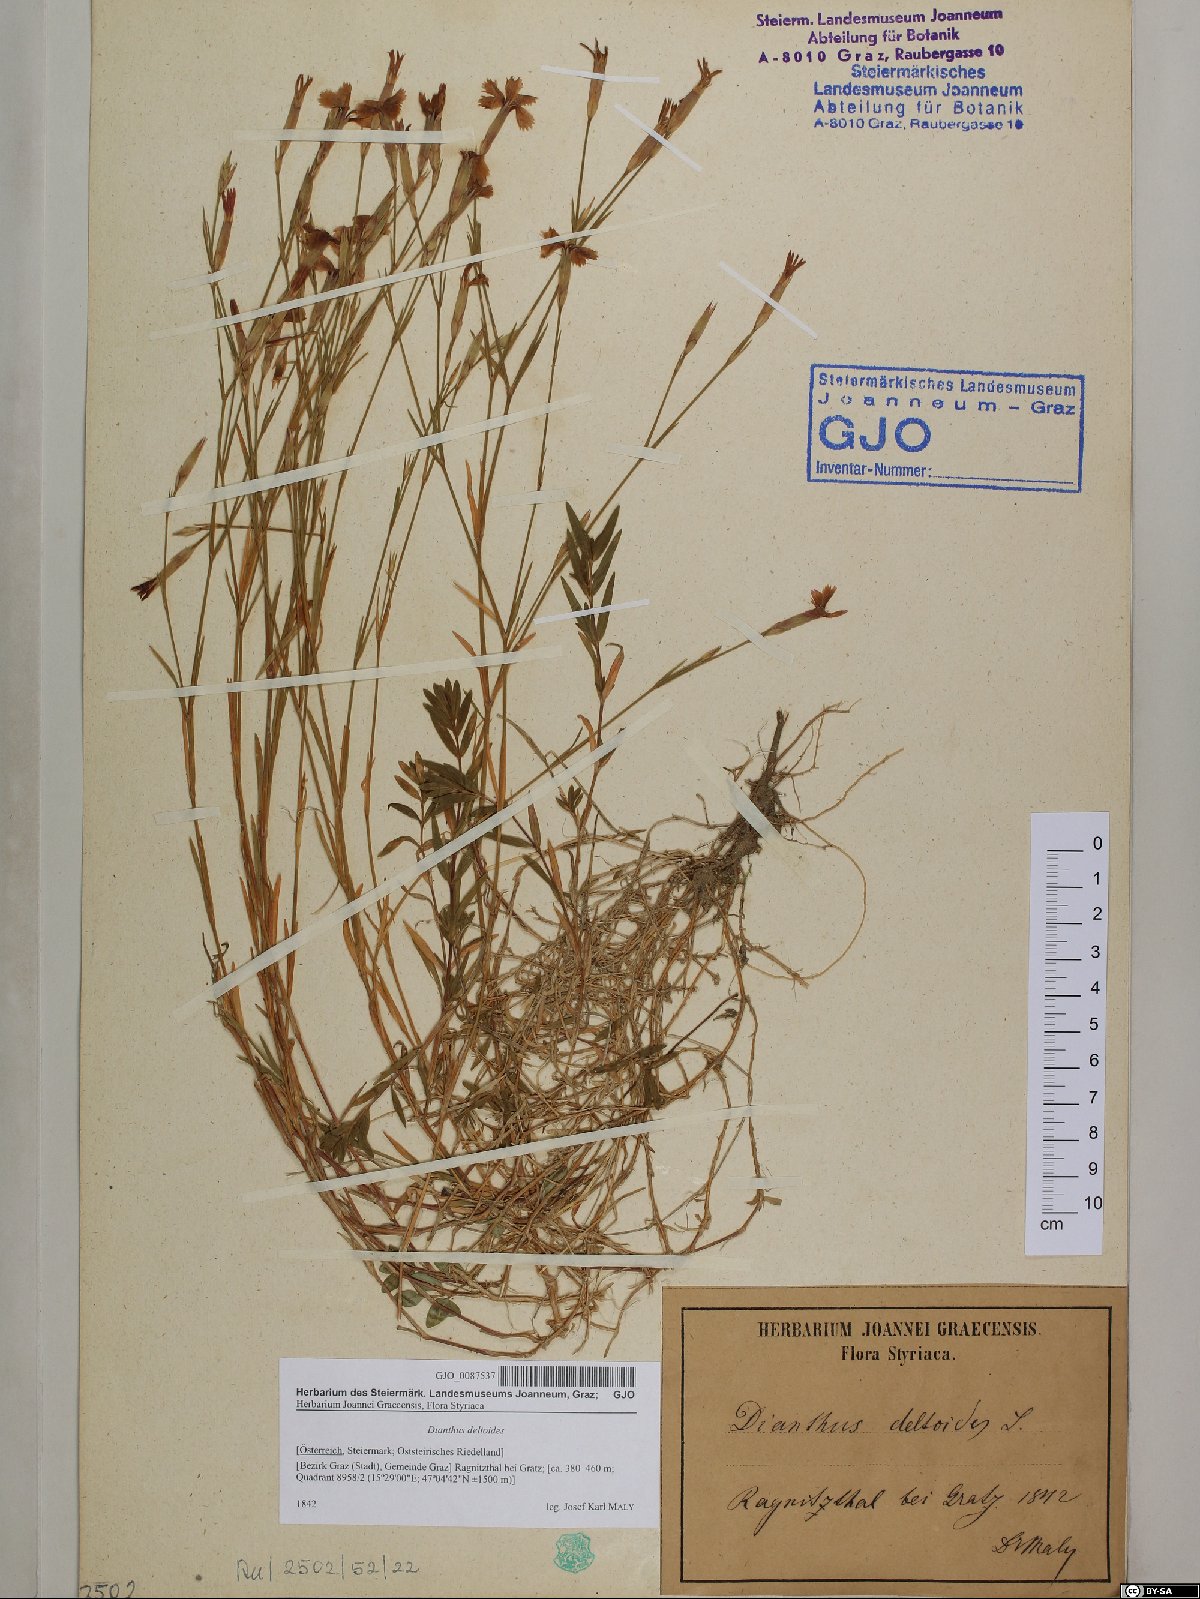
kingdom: Plantae
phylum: Tracheophyta
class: Magnoliopsida
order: Caryophyllales
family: Caryophyllaceae
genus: Dianthus
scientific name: Dianthus deltoides
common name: Maiden pink
